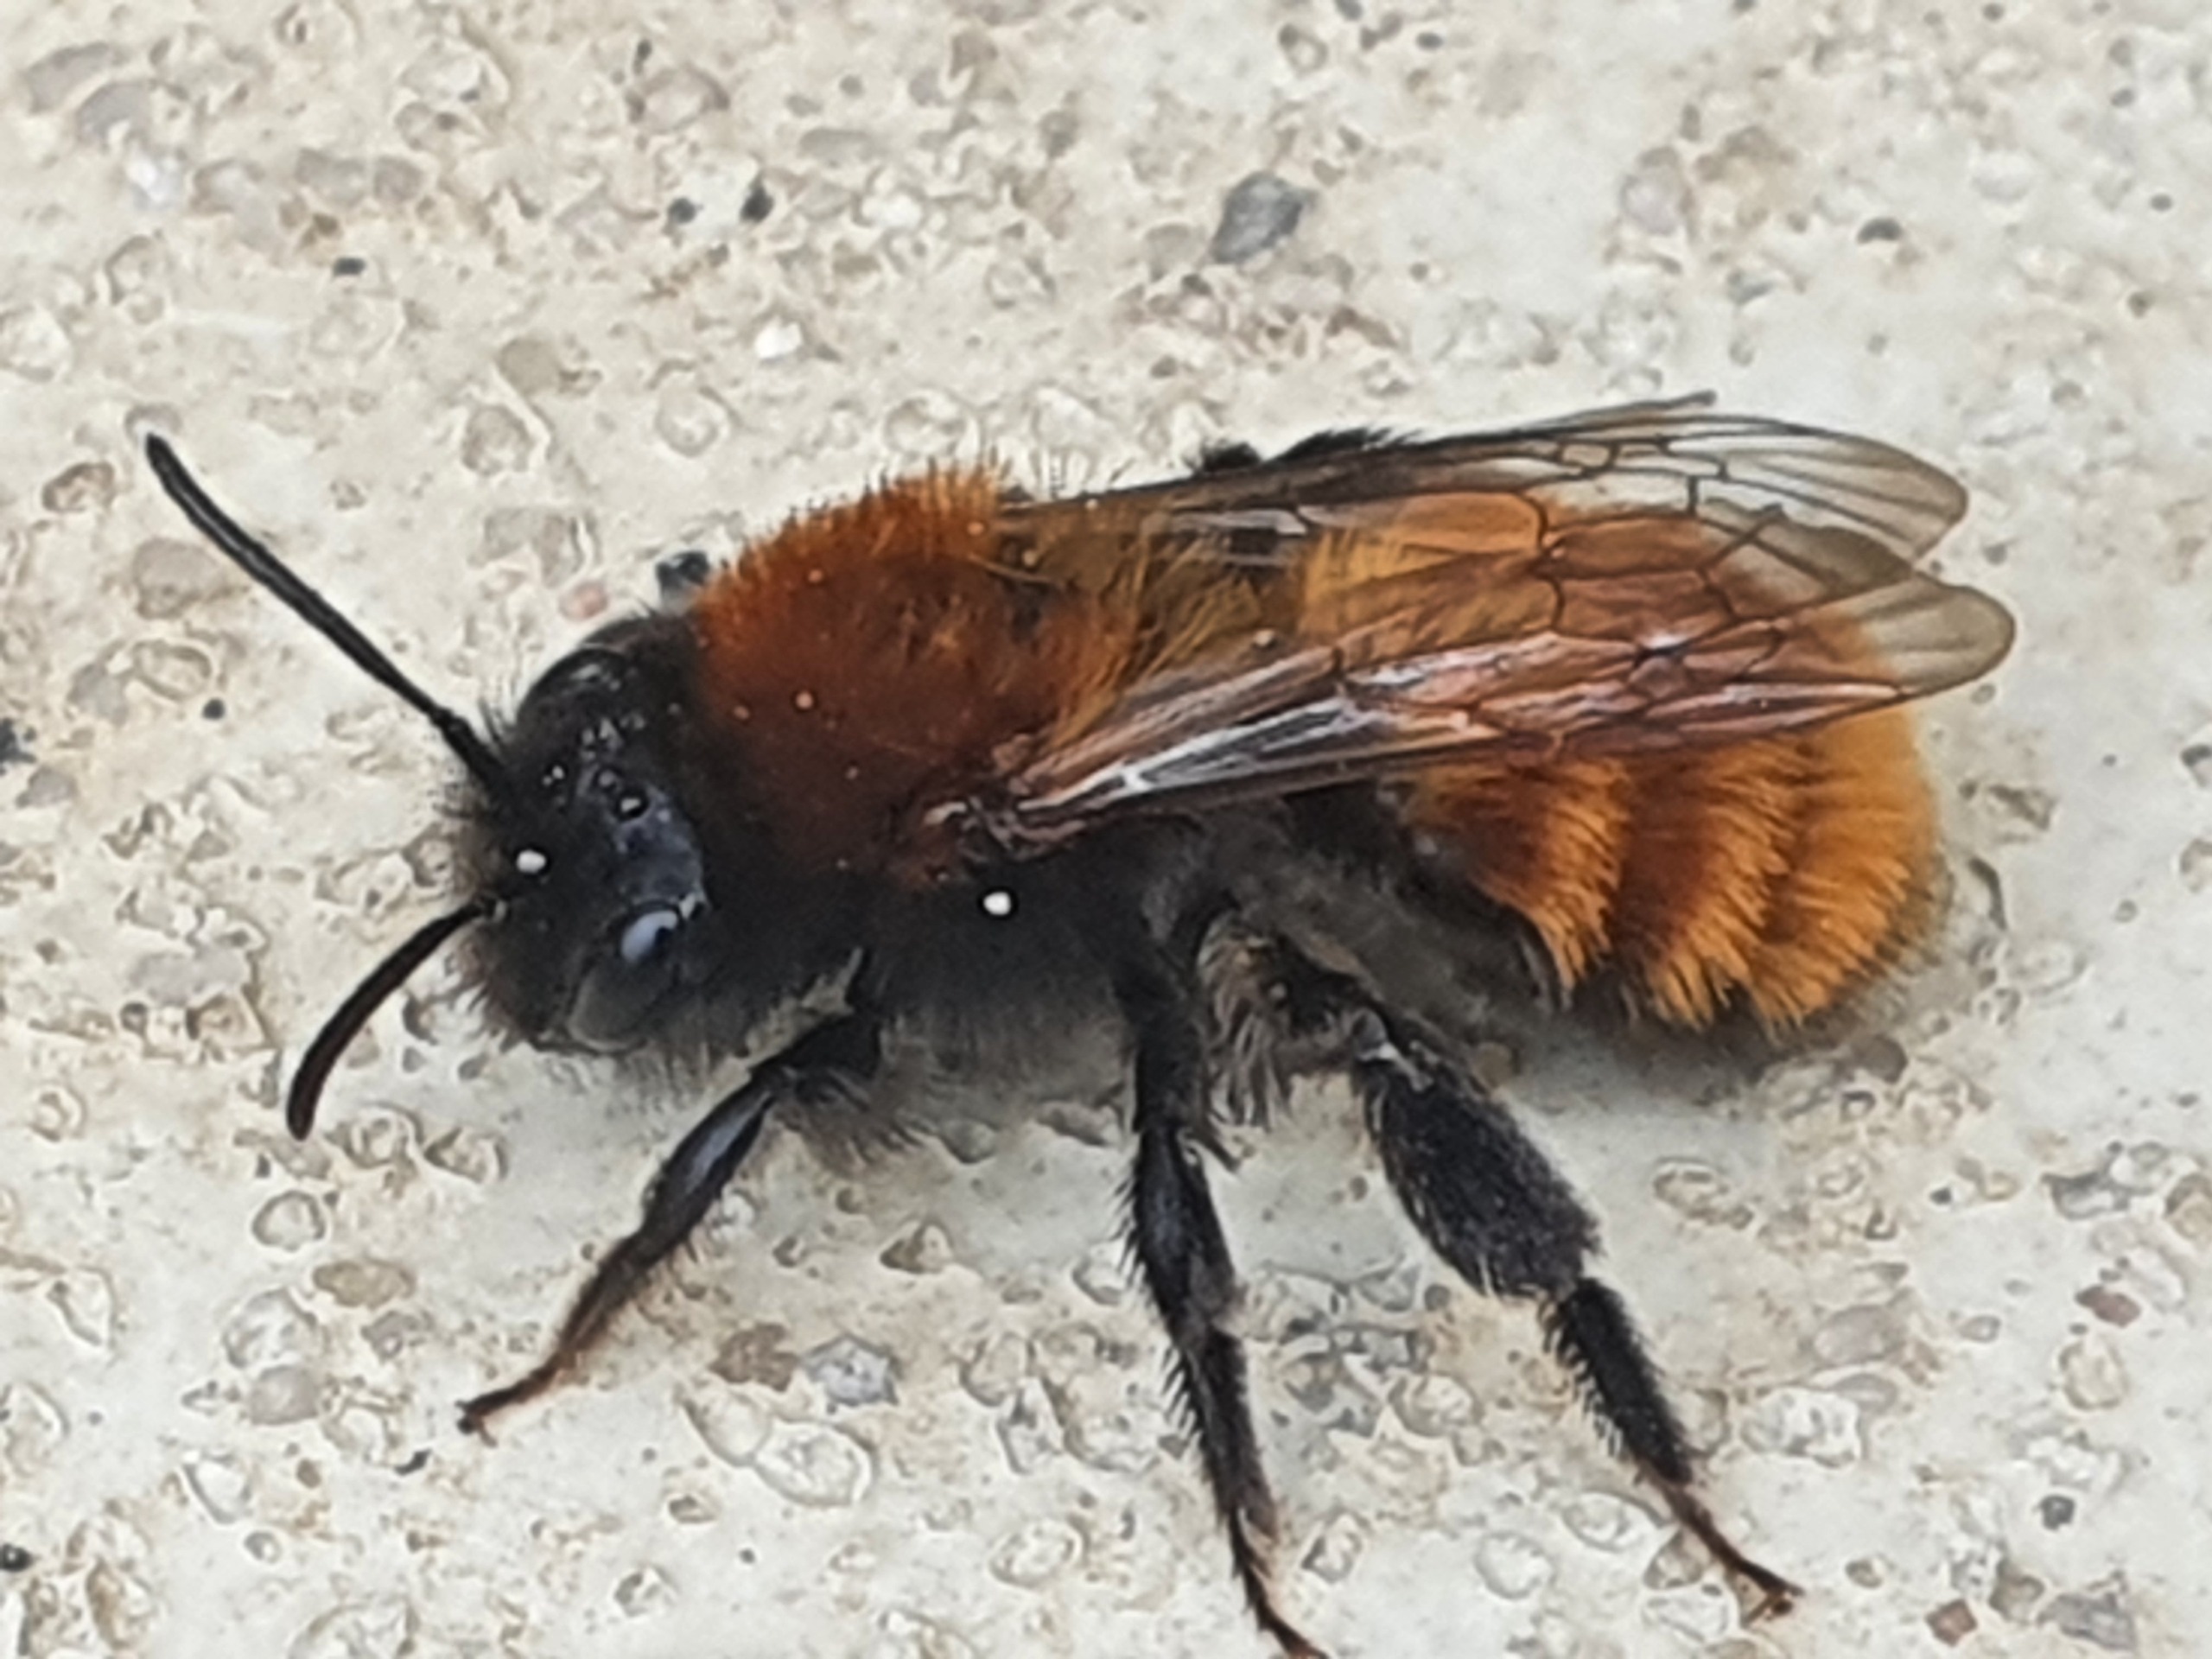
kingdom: Animalia
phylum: Arthropoda
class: Insecta
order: Hymenoptera
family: Andrenidae
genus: Andrena
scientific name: Andrena fulva
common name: Rødpelset jordbi
